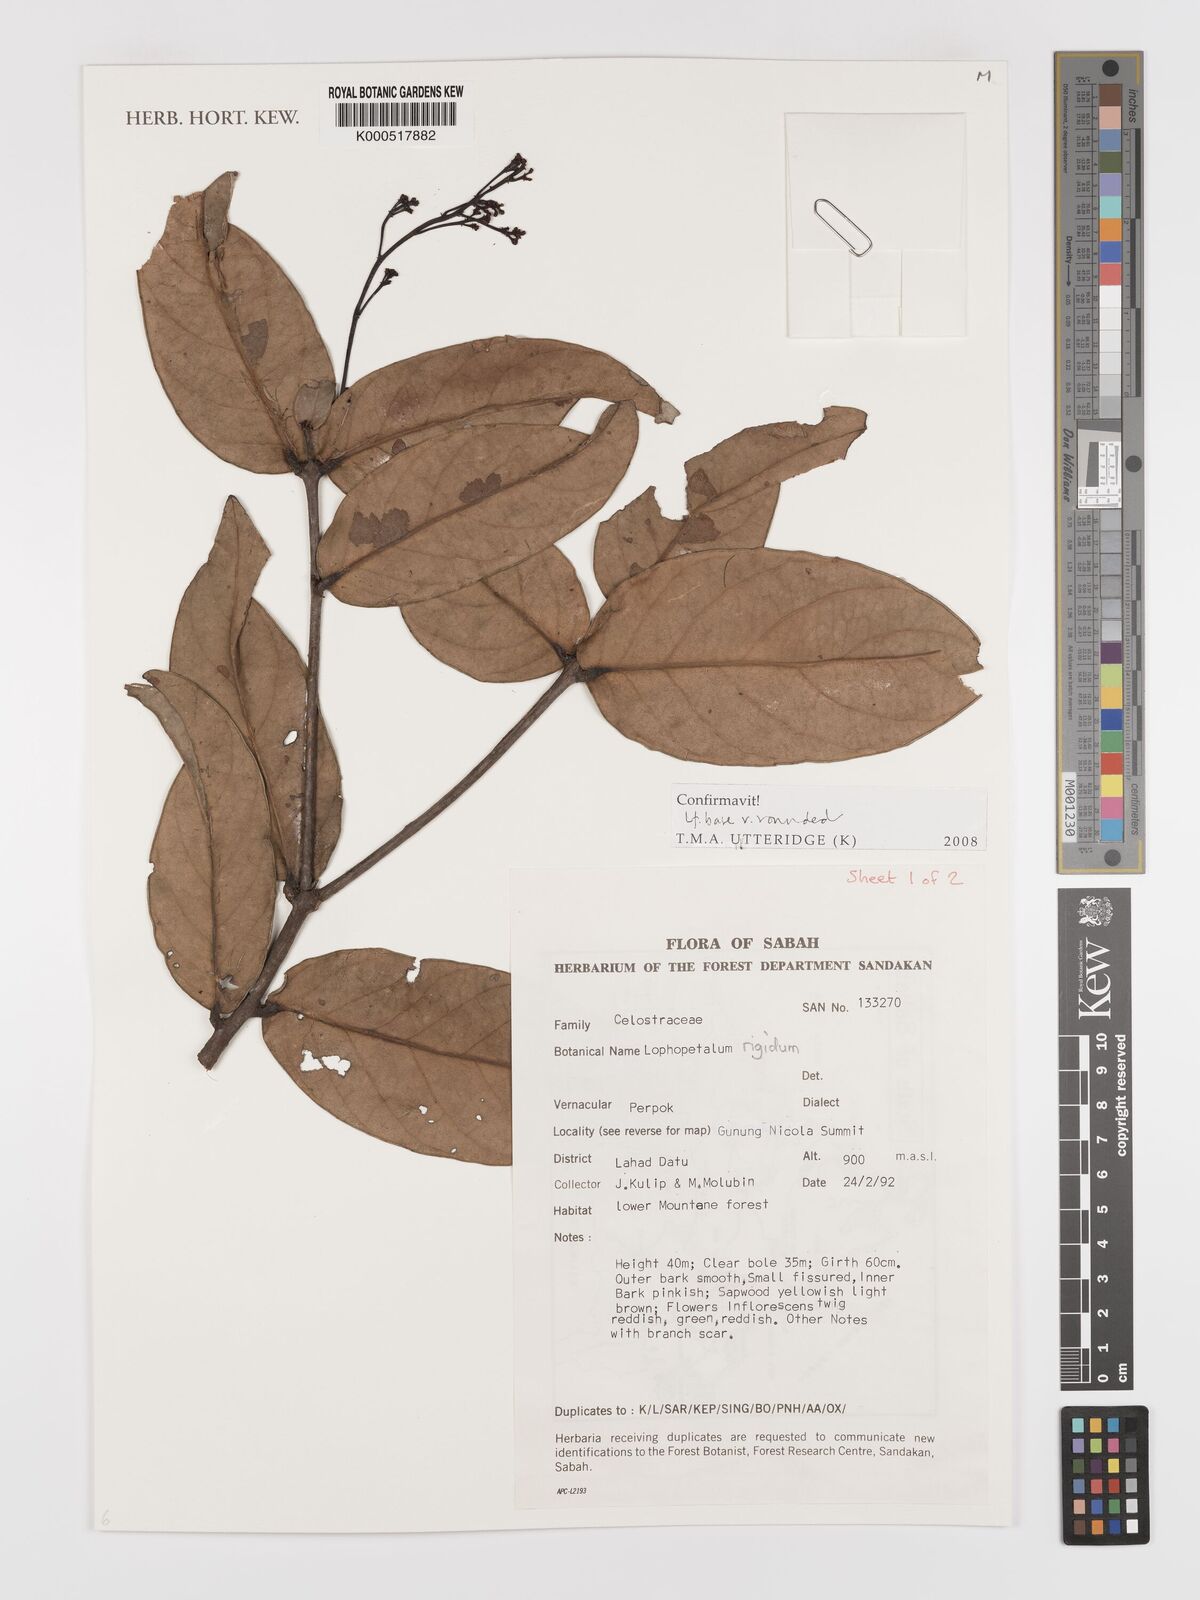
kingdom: Plantae
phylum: Tracheophyta
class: Magnoliopsida
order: Celastrales
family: Celastraceae
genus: Lophopetalum
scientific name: Lophopetalum rigidum
